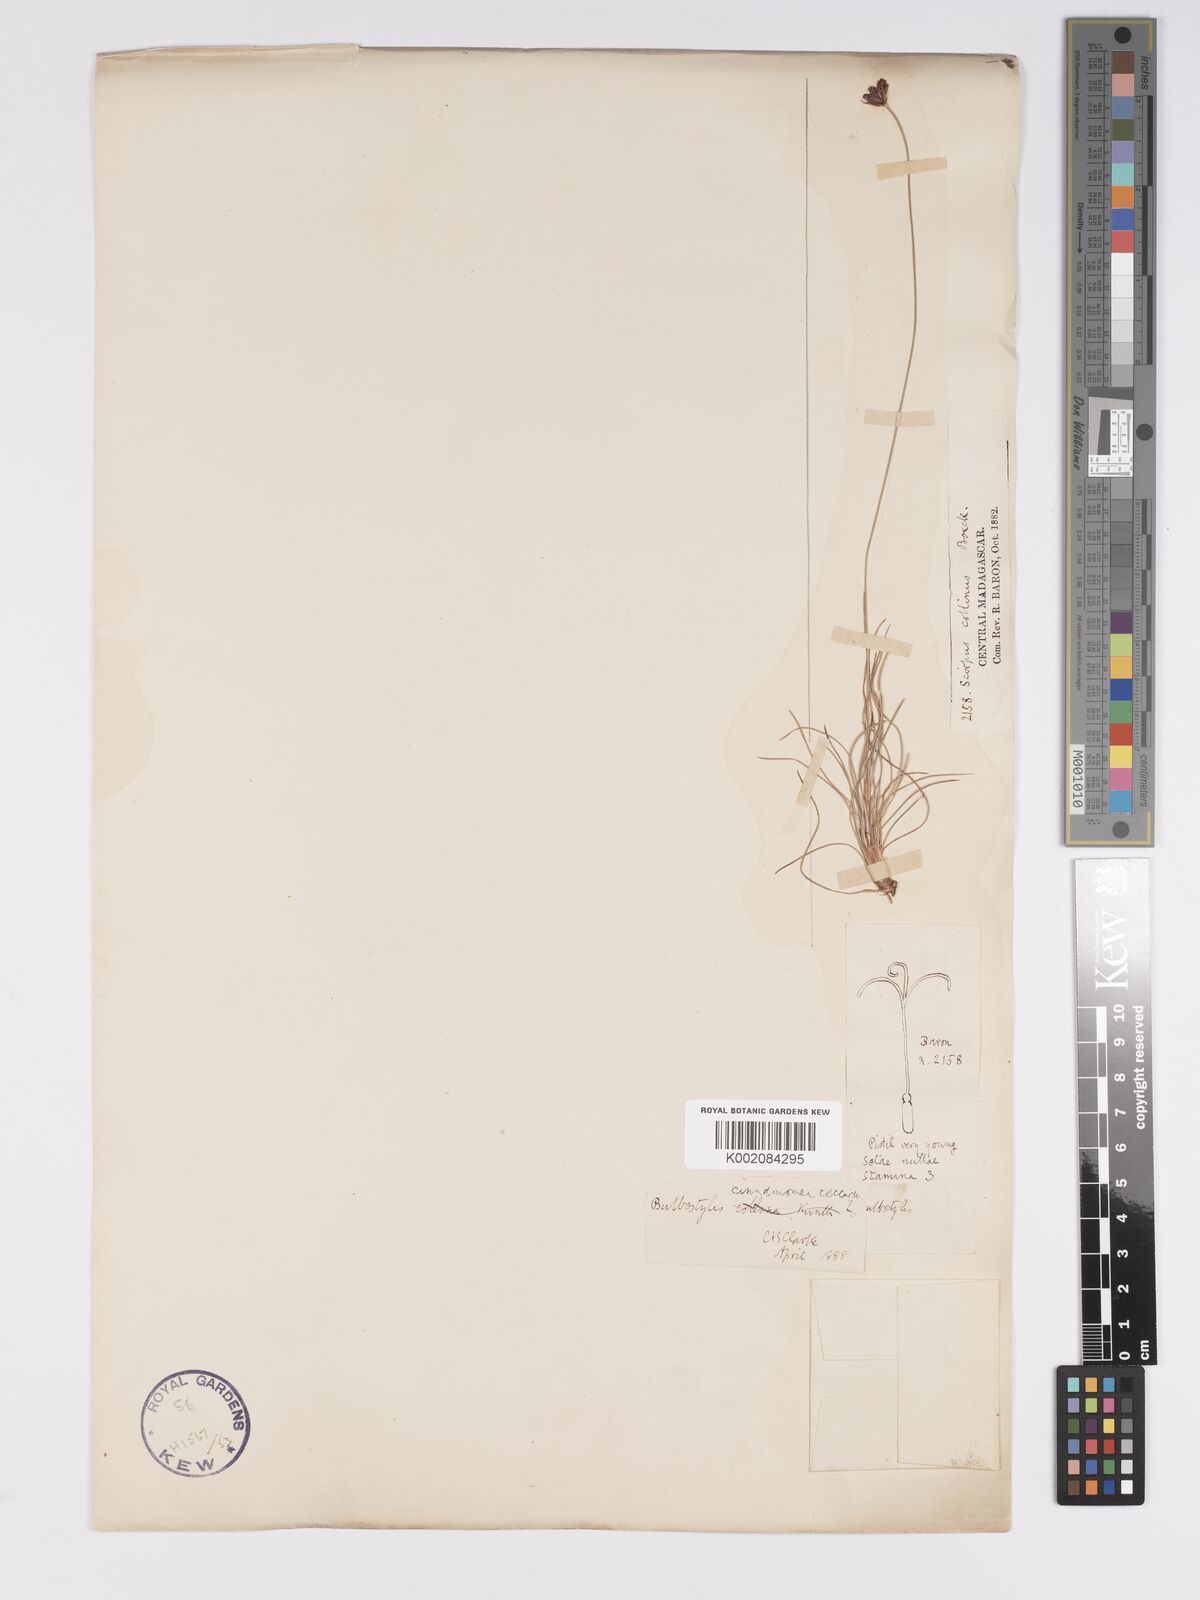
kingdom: Plantae
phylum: Tracheophyta
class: Liliopsida
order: Poales
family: Cyperaceae
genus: Bulbostylis
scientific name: Bulbostylis schoenoides
